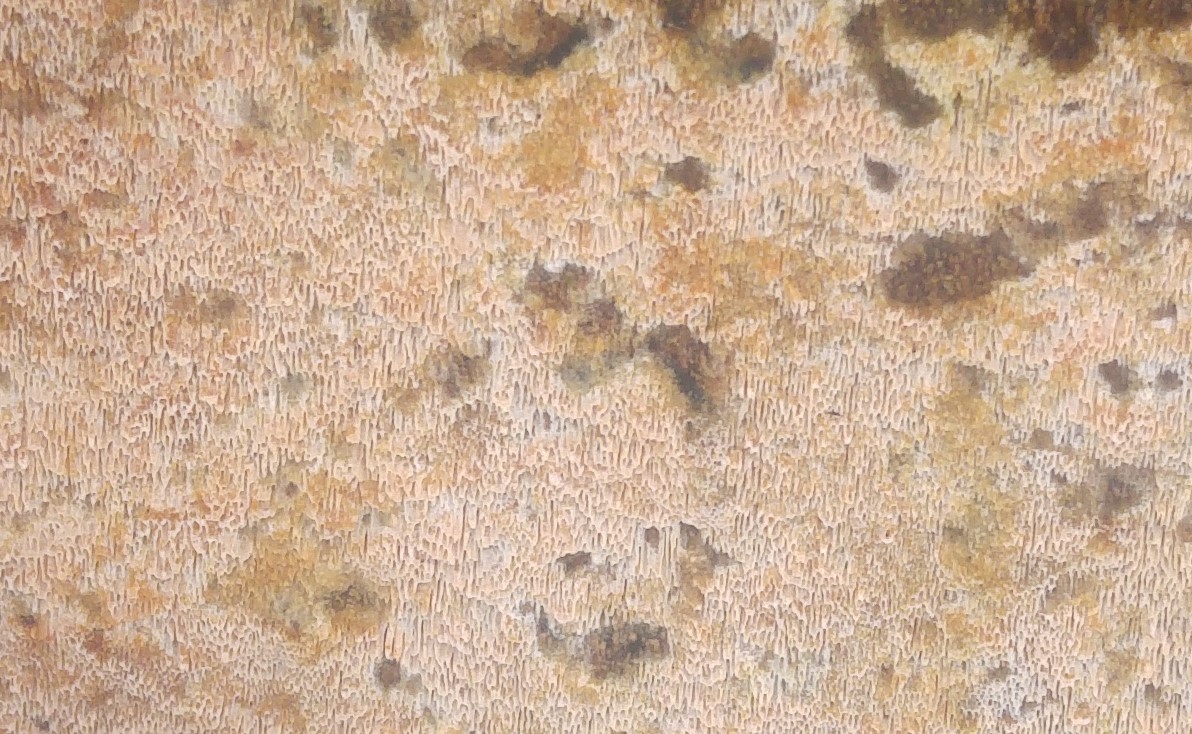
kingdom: Fungi
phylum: Basidiomycota
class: Agaricomycetes
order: Polyporales
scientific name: Polyporales
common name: poresvampordenen
